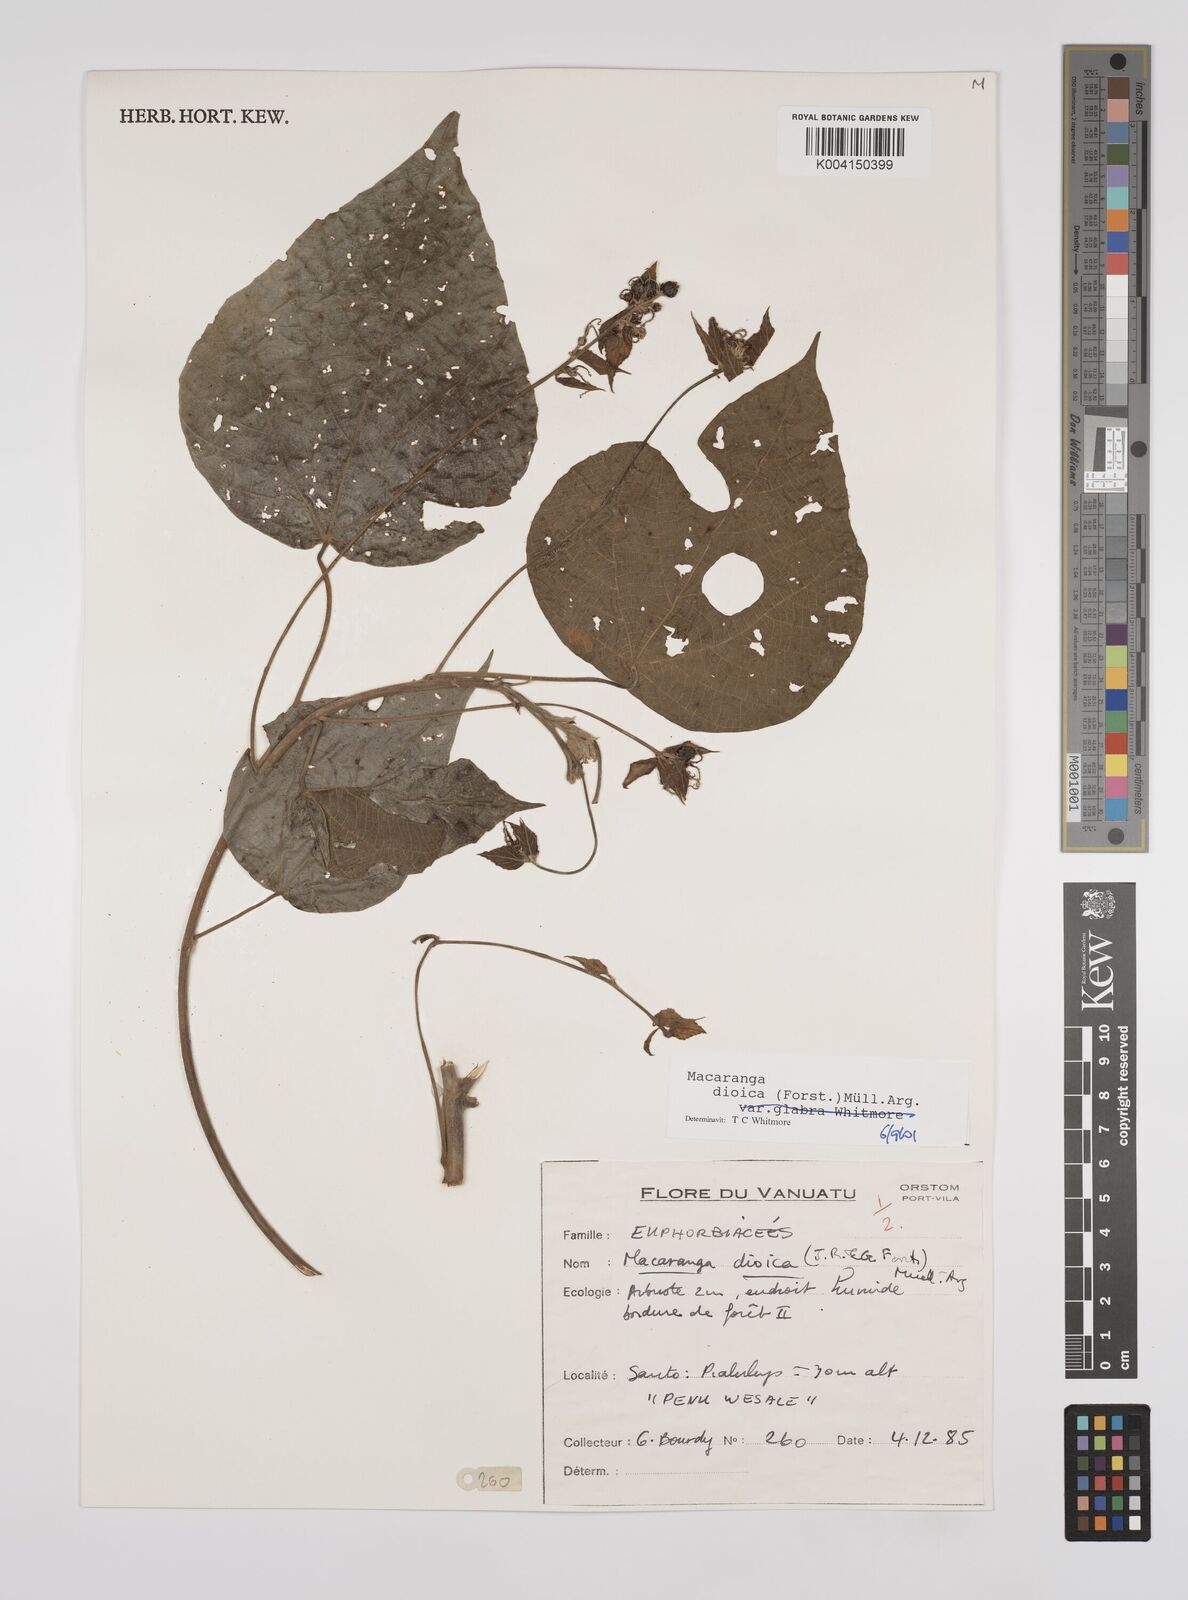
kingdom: Plantae
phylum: Tracheophyta
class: Magnoliopsida
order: Malpighiales
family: Euphorbiaceae
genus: Macaranga
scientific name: Macaranga dioica
